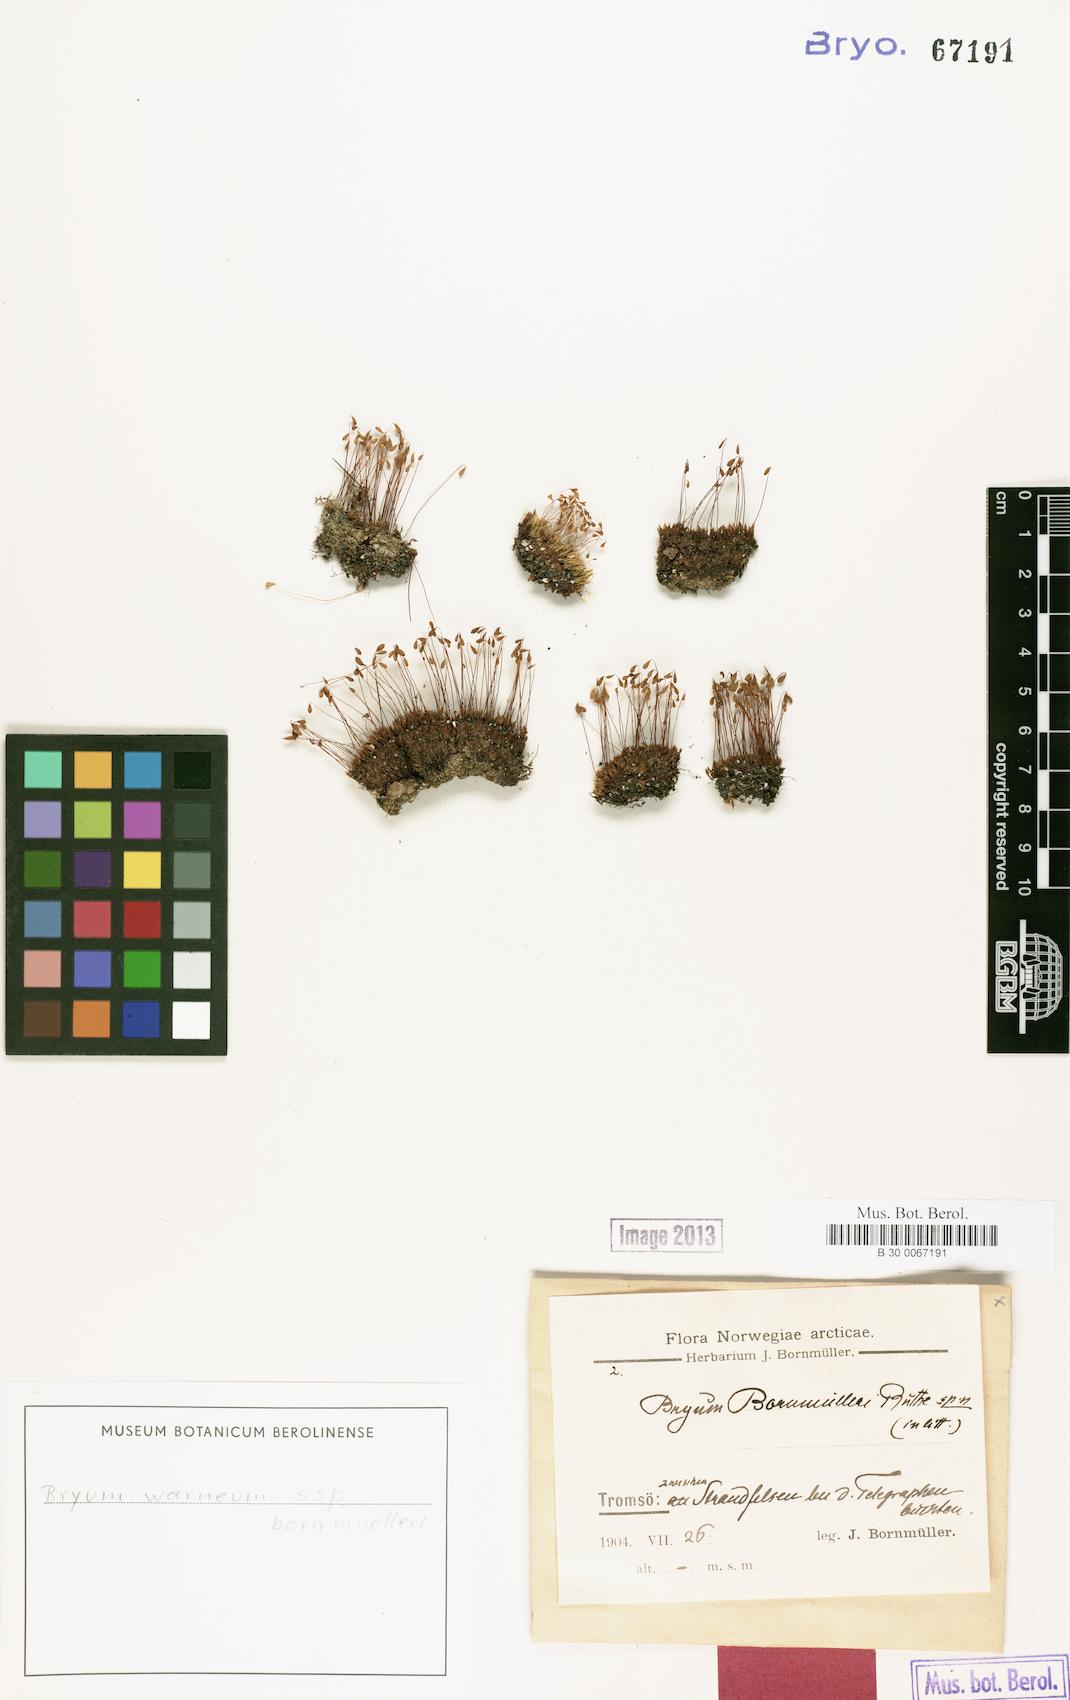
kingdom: Plantae
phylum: Bryophyta
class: Bryopsida
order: Bryales
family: Bryaceae
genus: Ptychostomum
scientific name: Ptychostomum warneum
